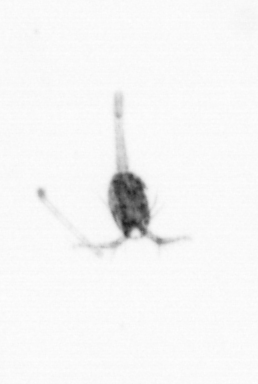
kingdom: Animalia
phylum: Arthropoda
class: Copepoda
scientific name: Copepoda
